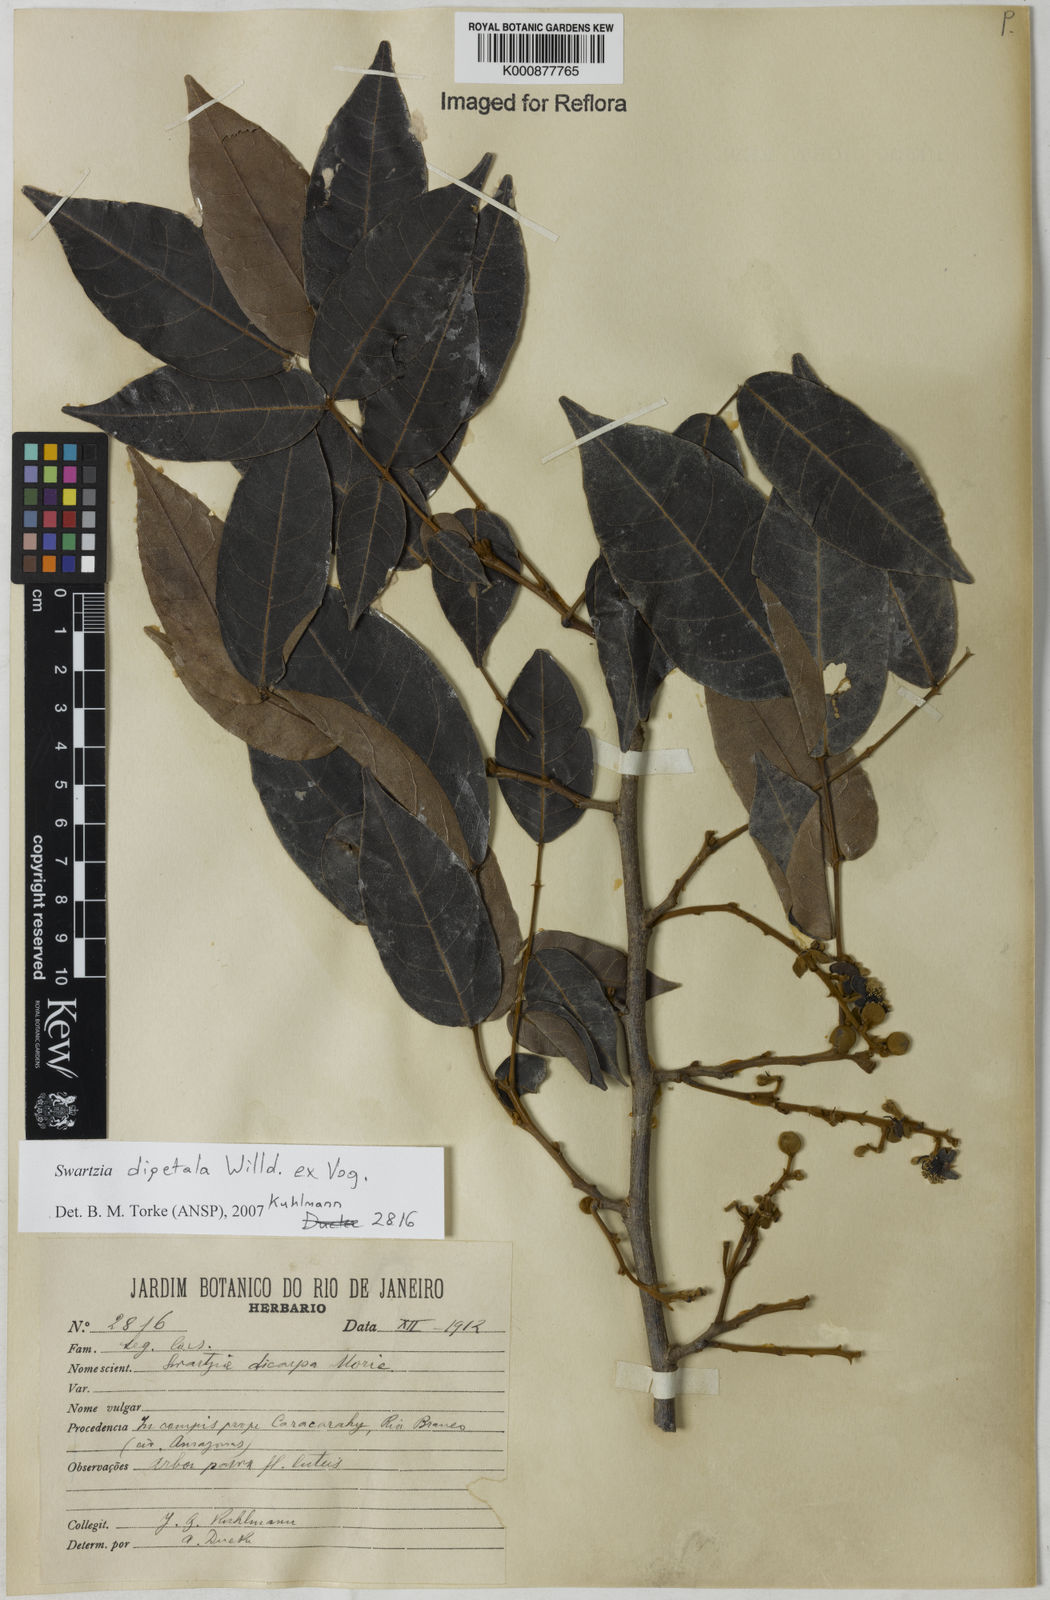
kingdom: Plantae
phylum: Tracheophyta
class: Magnoliopsida
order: Fabales
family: Fabaceae
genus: Swartzia
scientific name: Swartzia dipetala
